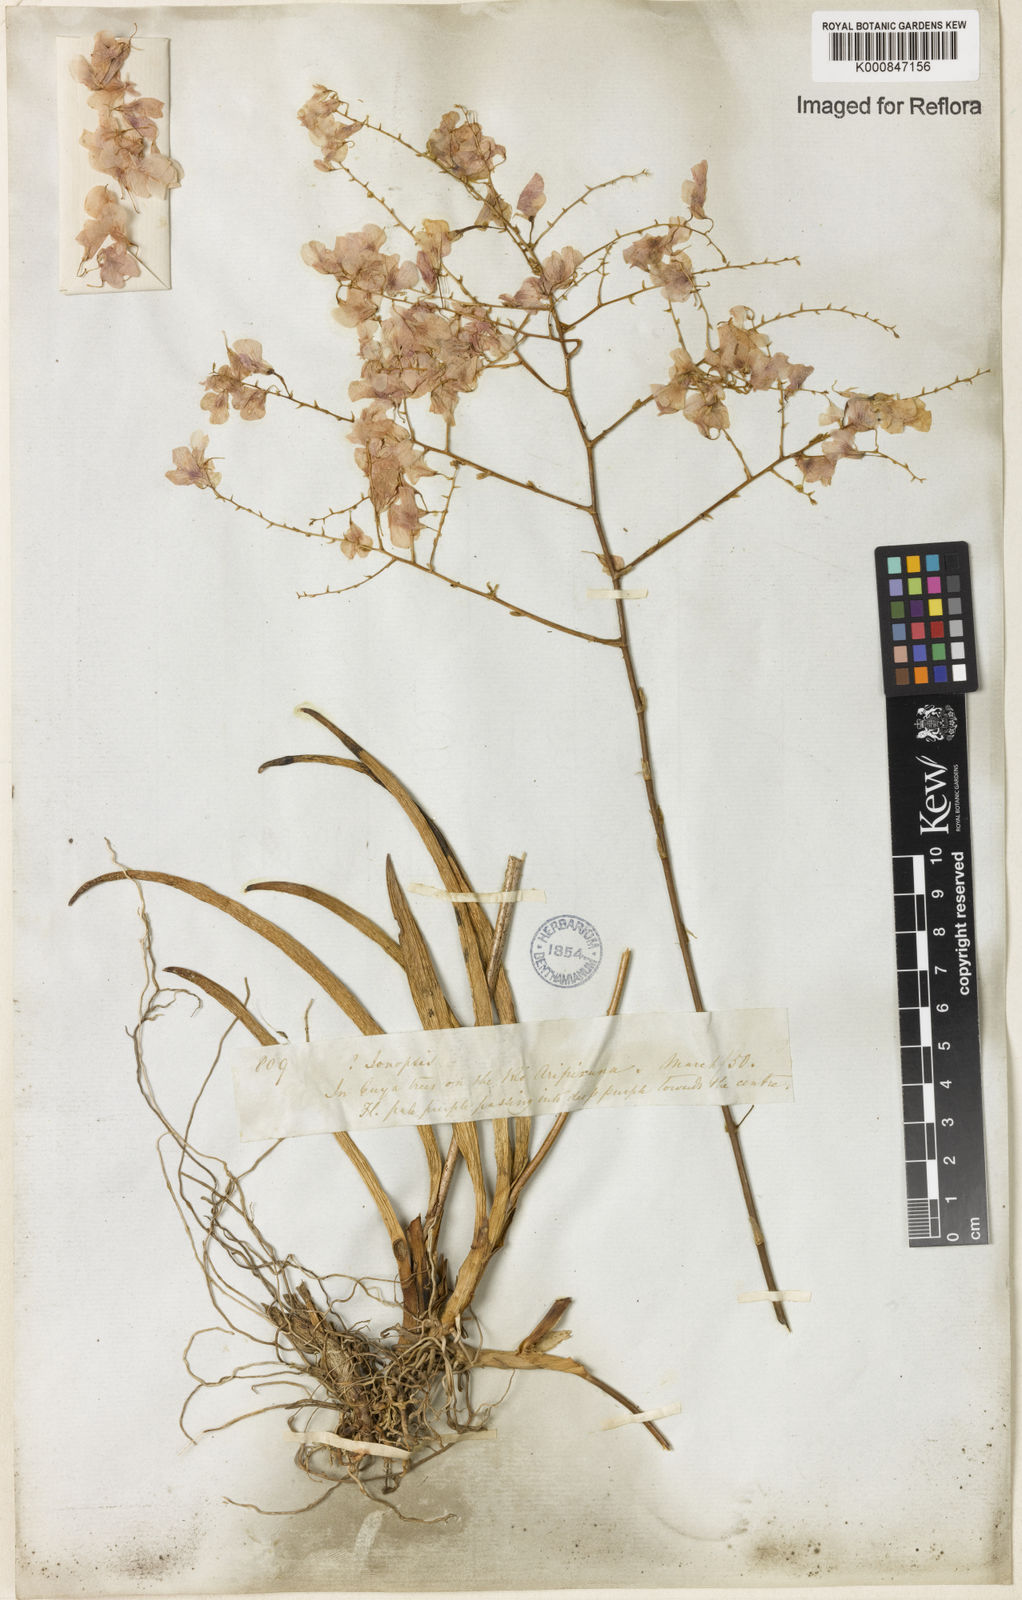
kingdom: Plantae
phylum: Tracheophyta
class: Liliopsida
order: Asparagales
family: Orchidaceae
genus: Ionopsis
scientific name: Ionopsis utricularioides
